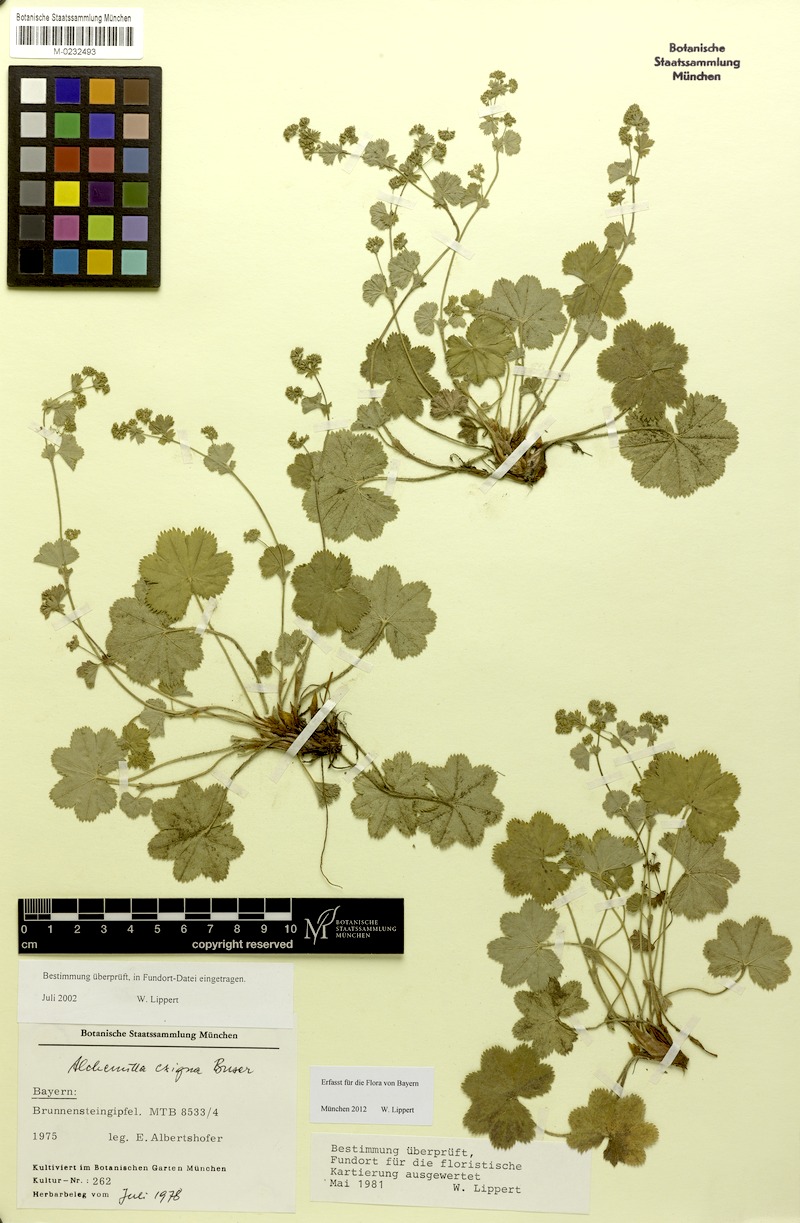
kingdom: Plantae
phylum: Tracheophyta
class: Magnoliopsida
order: Rosales
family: Rosaceae
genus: Alchemilla
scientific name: Alchemilla exigua
